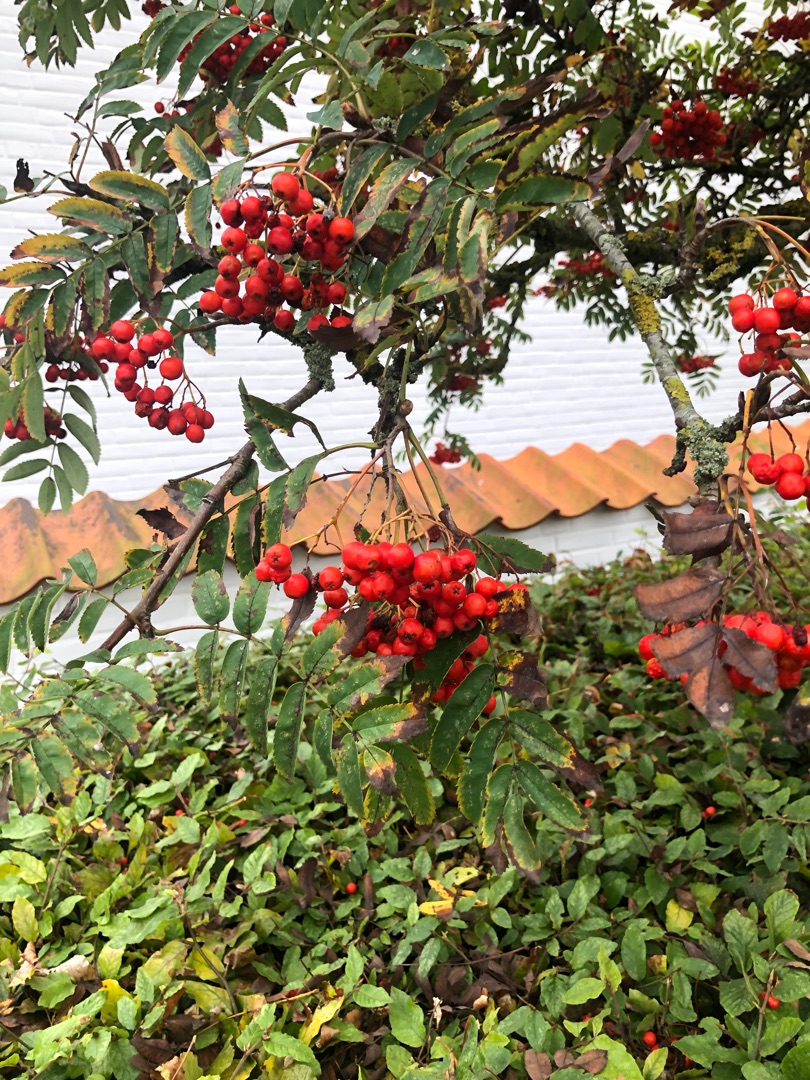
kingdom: Plantae
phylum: Tracheophyta
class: Magnoliopsida
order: Rosales
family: Rosaceae
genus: Sorbus
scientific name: Sorbus aucuparia
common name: Almindelig røn
